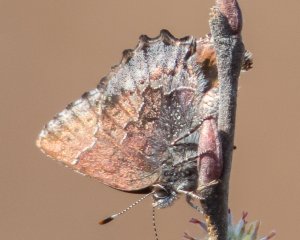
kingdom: Animalia
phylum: Arthropoda
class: Insecta
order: Lepidoptera
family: Lycaenidae
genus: Callophrys
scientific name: Callophrys polios
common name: Hoary Elfin
